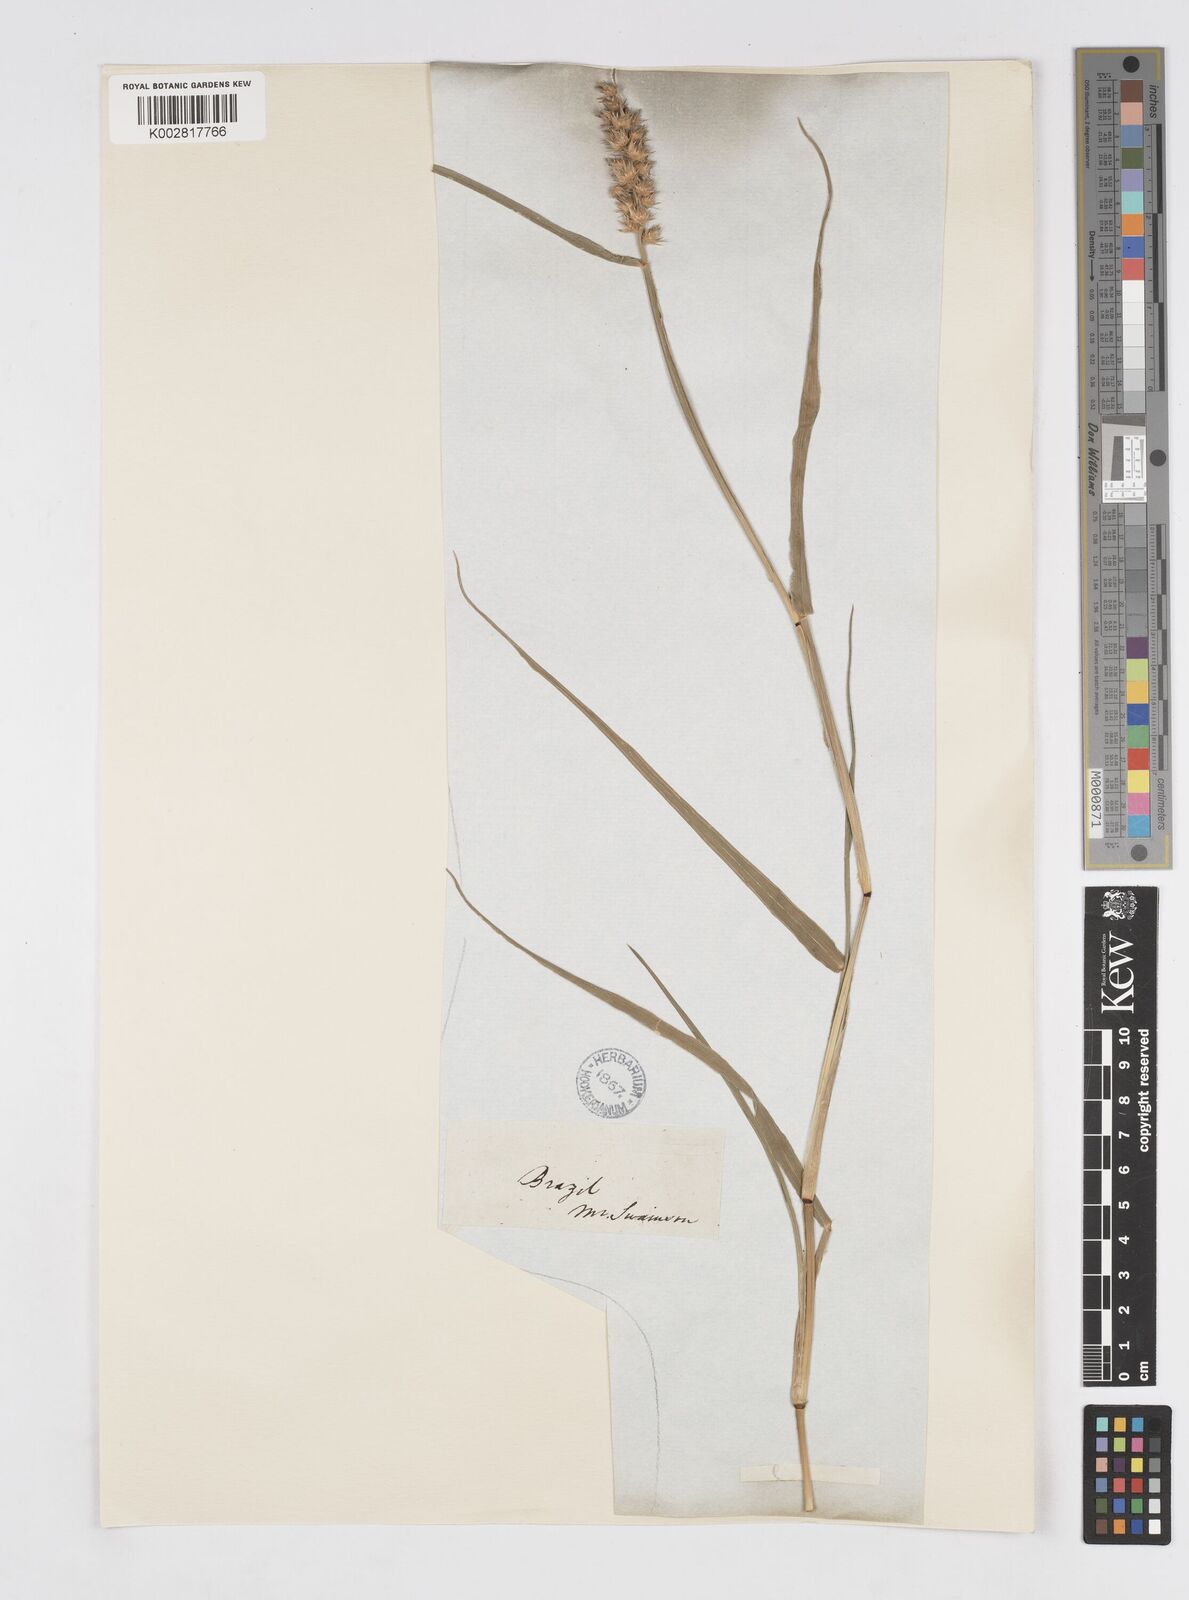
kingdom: Plantae
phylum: Tracheophyta
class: Liliopsida
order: Poales
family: Poaceae
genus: Cenchrus
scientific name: Cenchrus
